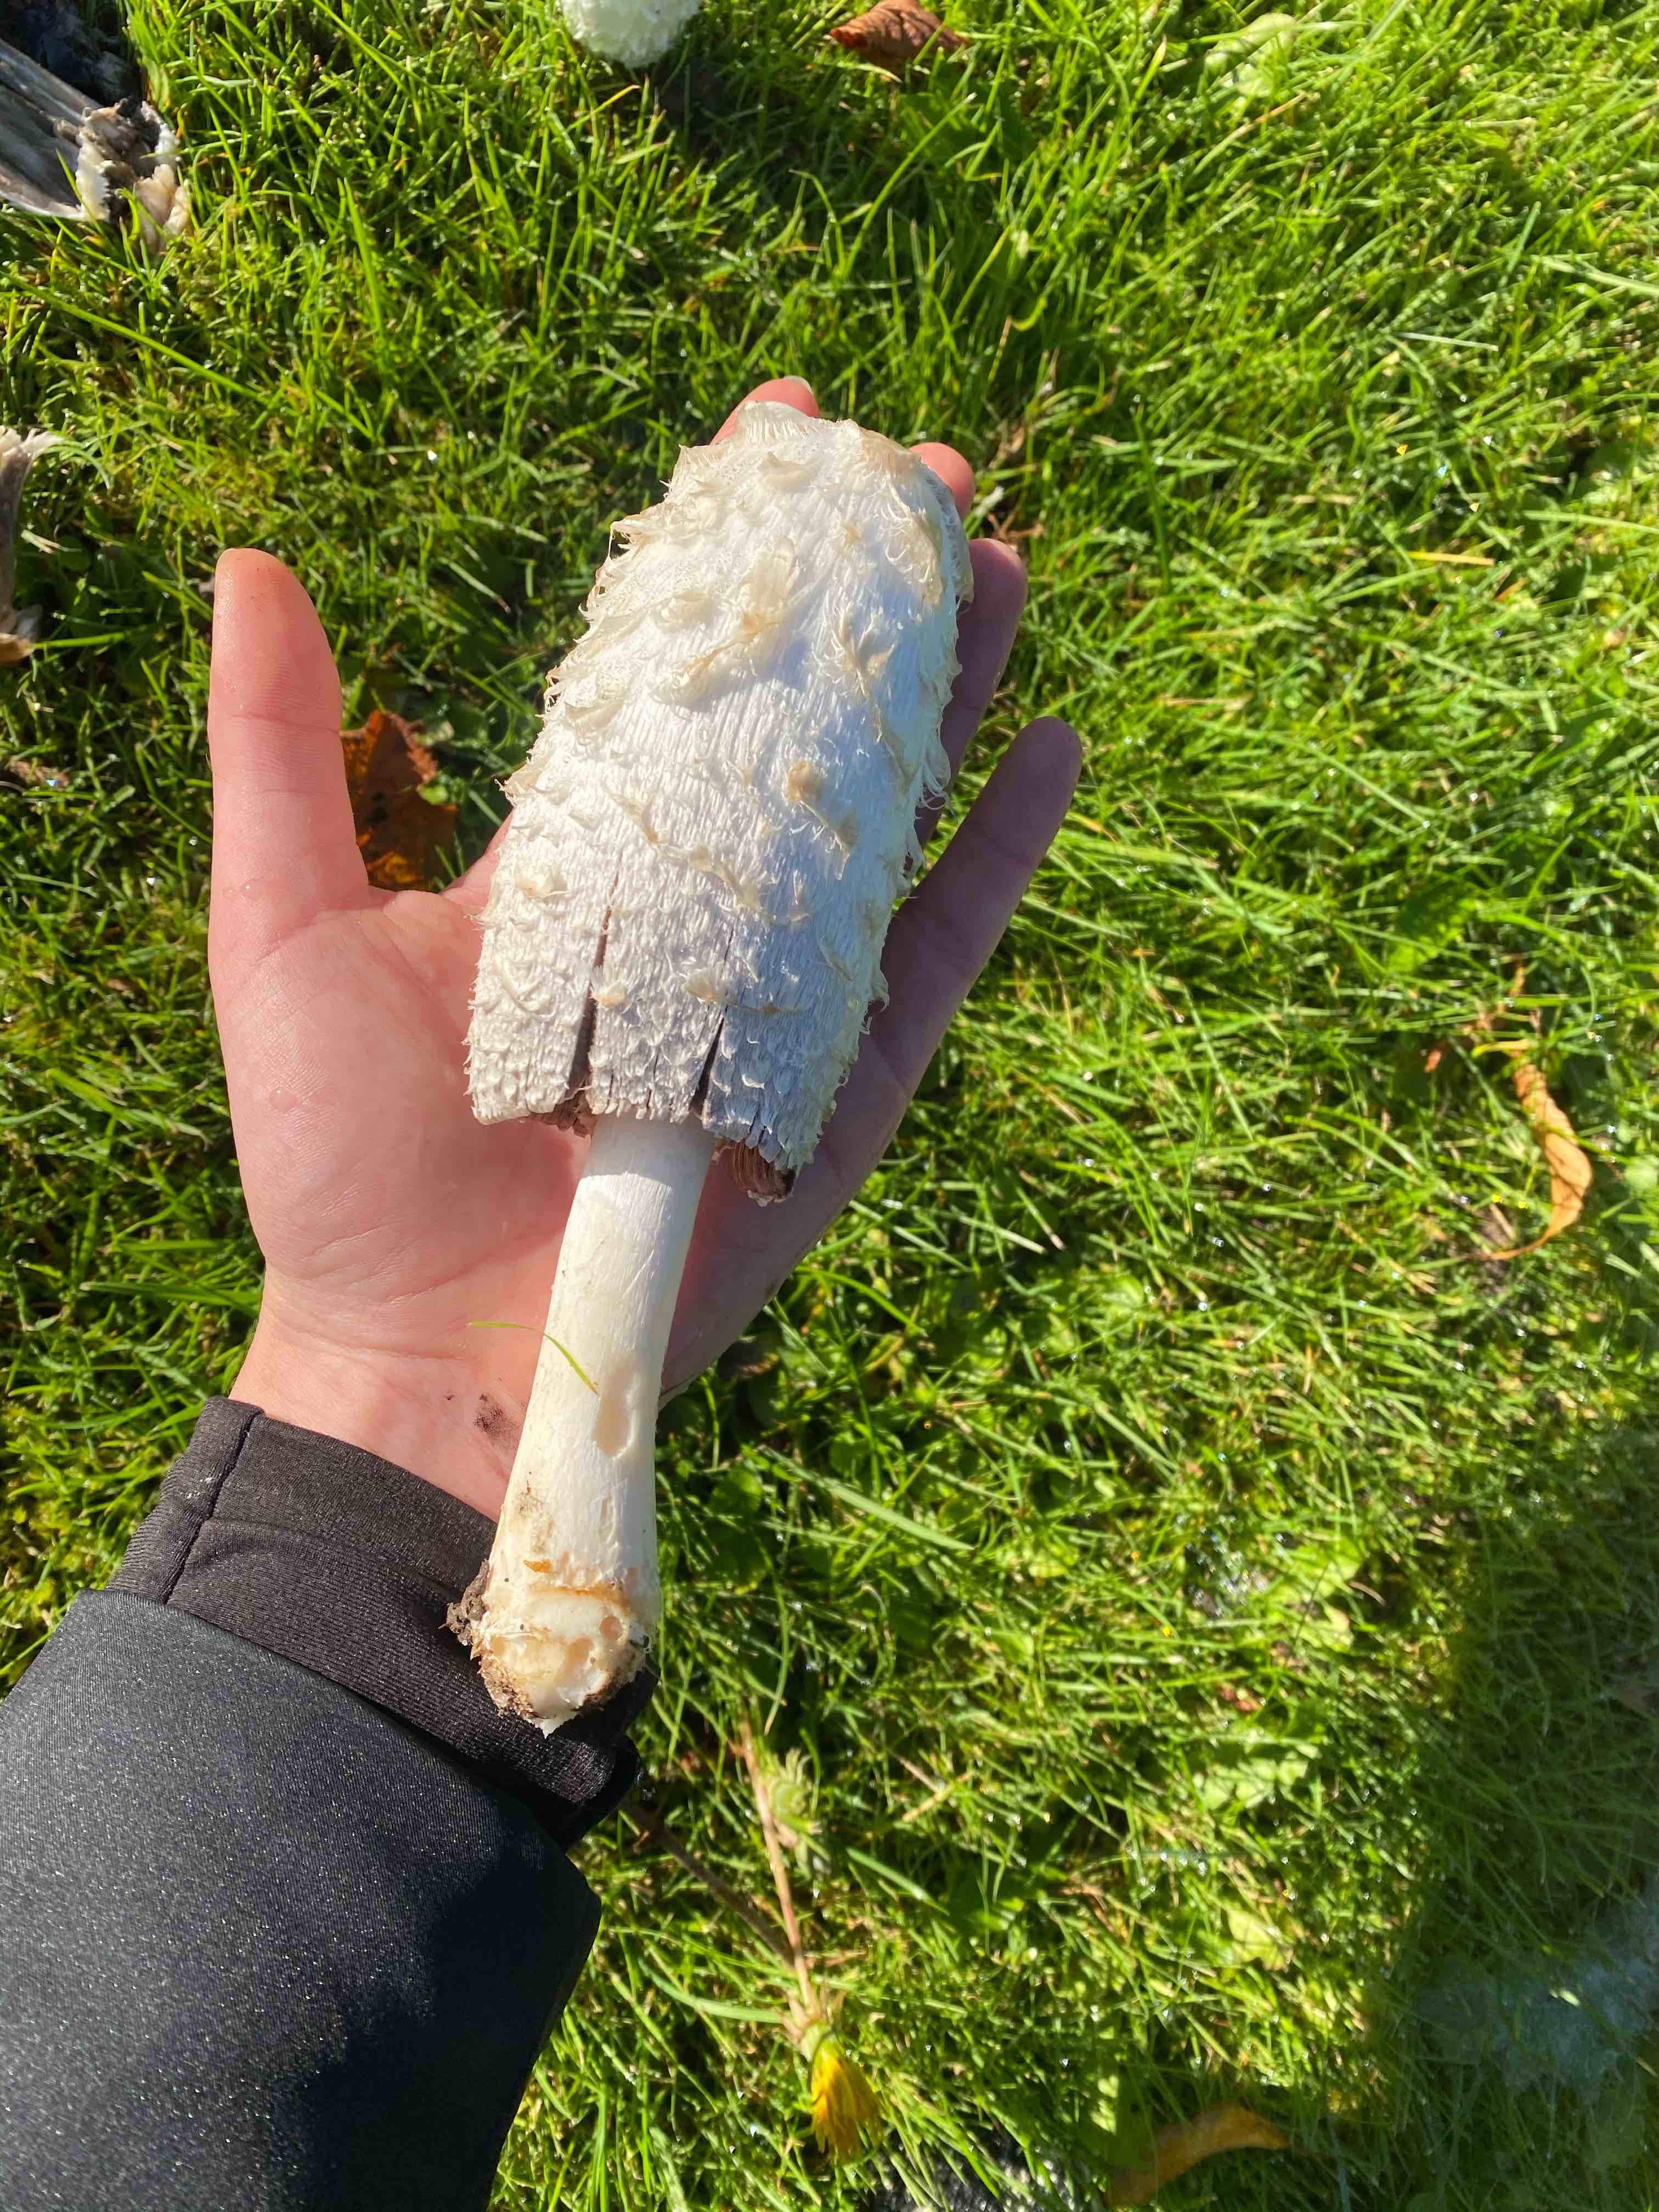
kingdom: Fungi
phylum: Basidiomycota
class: Agaricomycetes
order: Agaricales
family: Agaricaceae
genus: Coprinus
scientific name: Coprinus comatus
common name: stor parykhat
